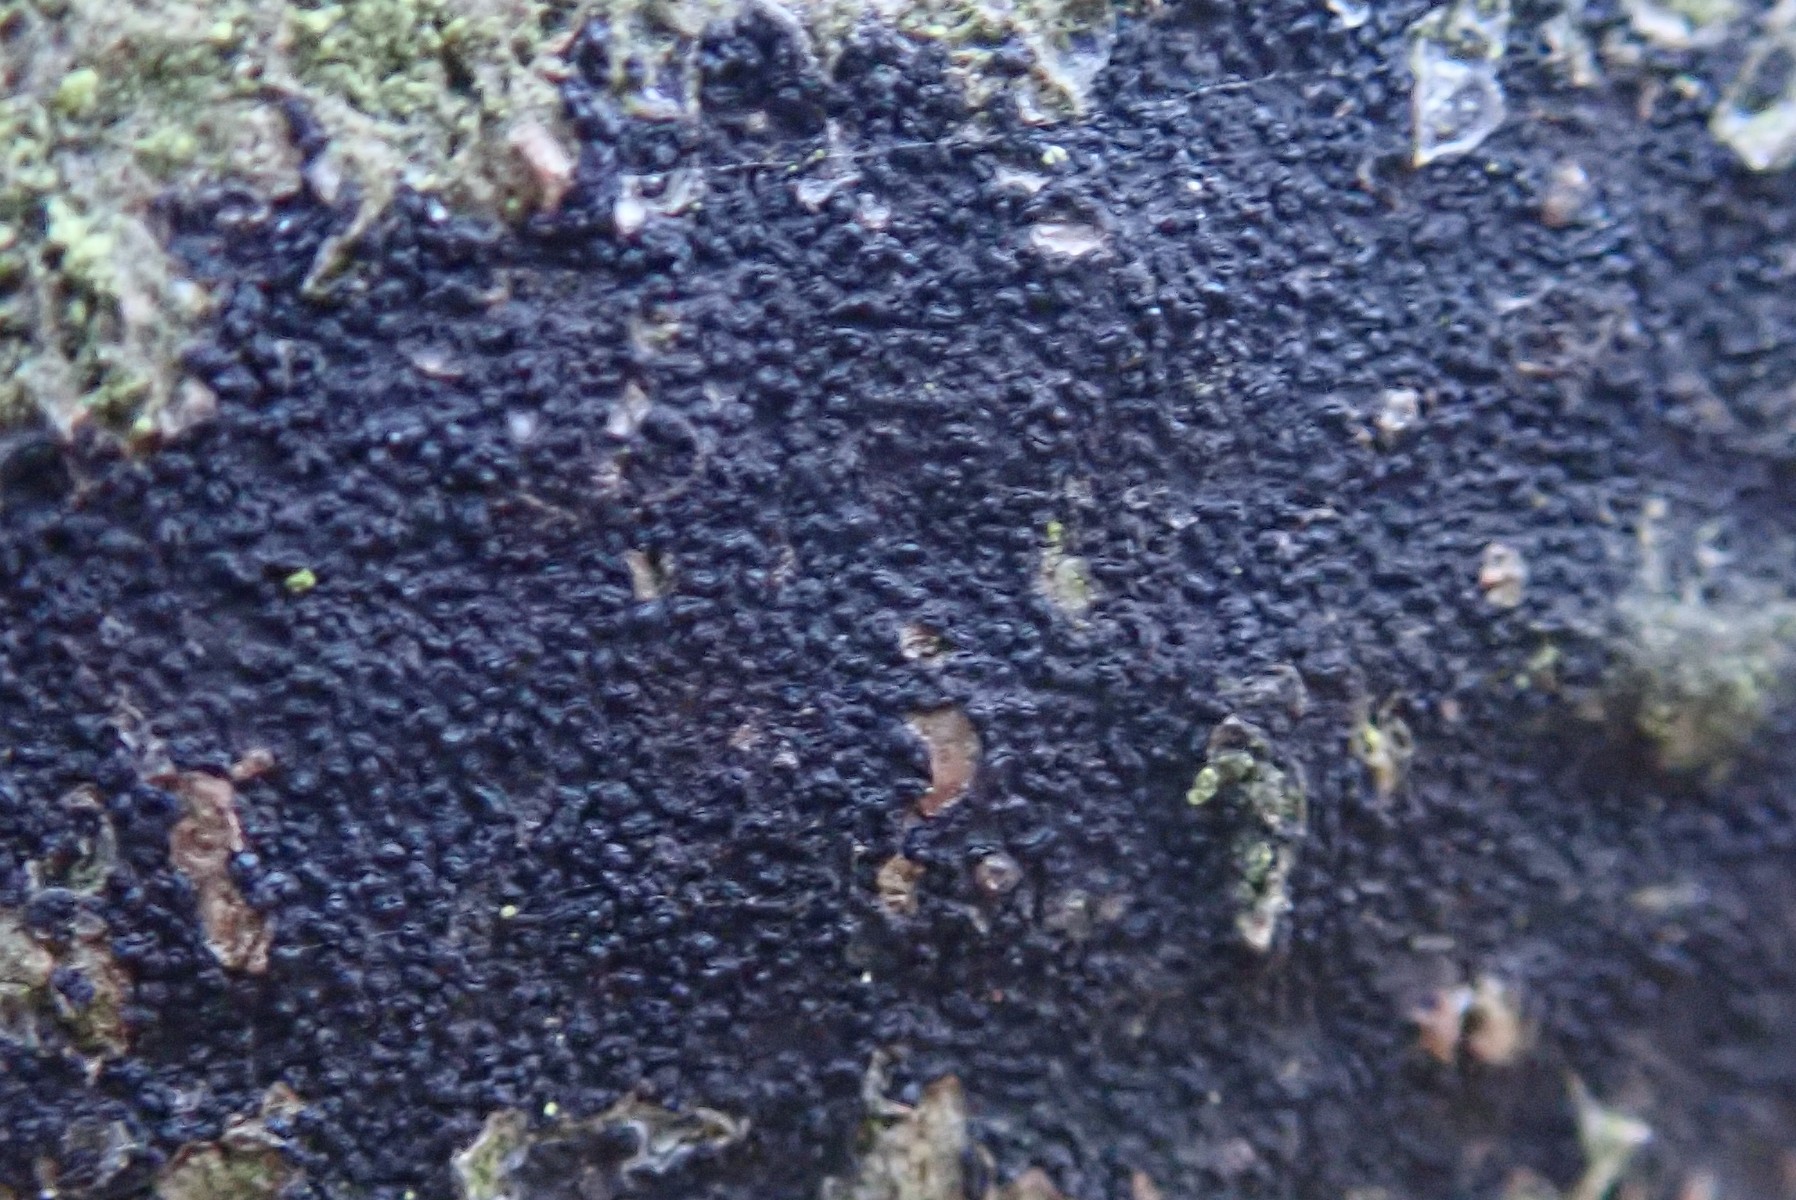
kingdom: Fungi
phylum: Ascomycota
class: Leotiomycetes
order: Rhytismatales
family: Ascodichaenaceae
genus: Ascodichaena
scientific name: Ascodichaena rugosa
